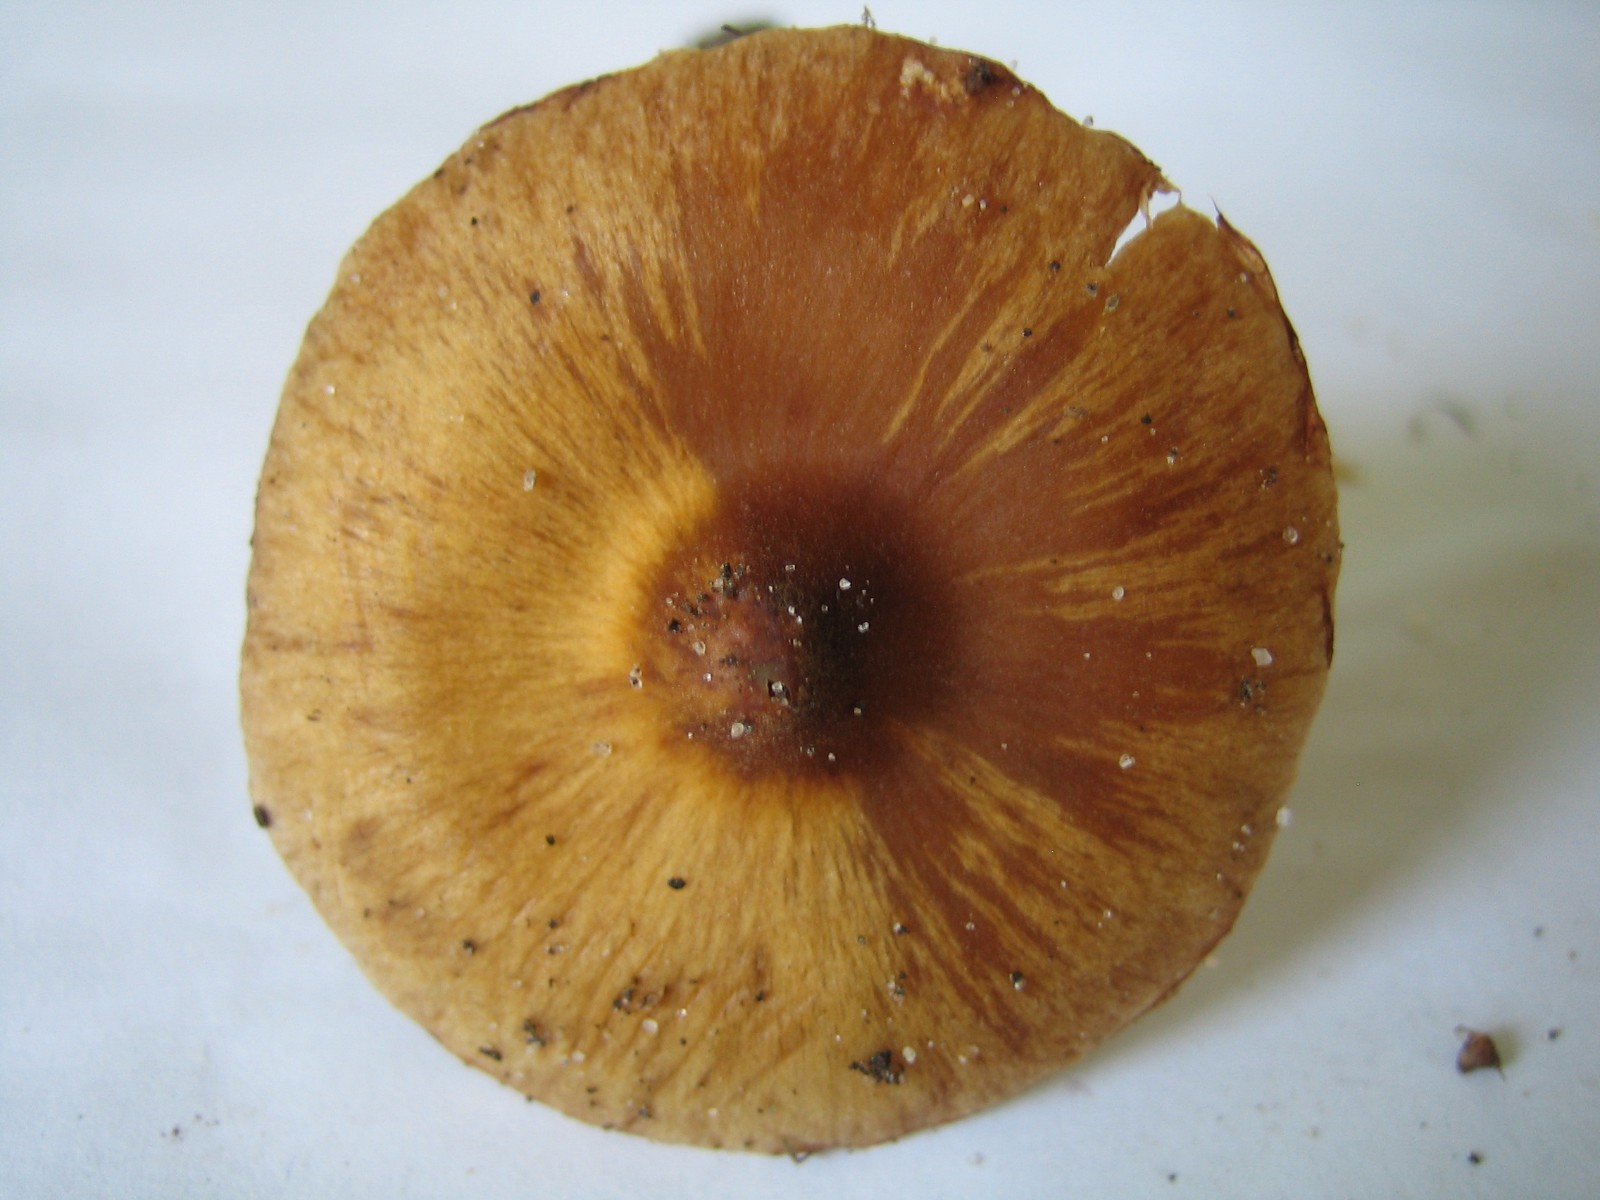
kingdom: Fungi
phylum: Basidiomycota
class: Agaricomycetes
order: Agaricales
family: Cortinariaceae
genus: Cortinarius
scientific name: Cortinarius
